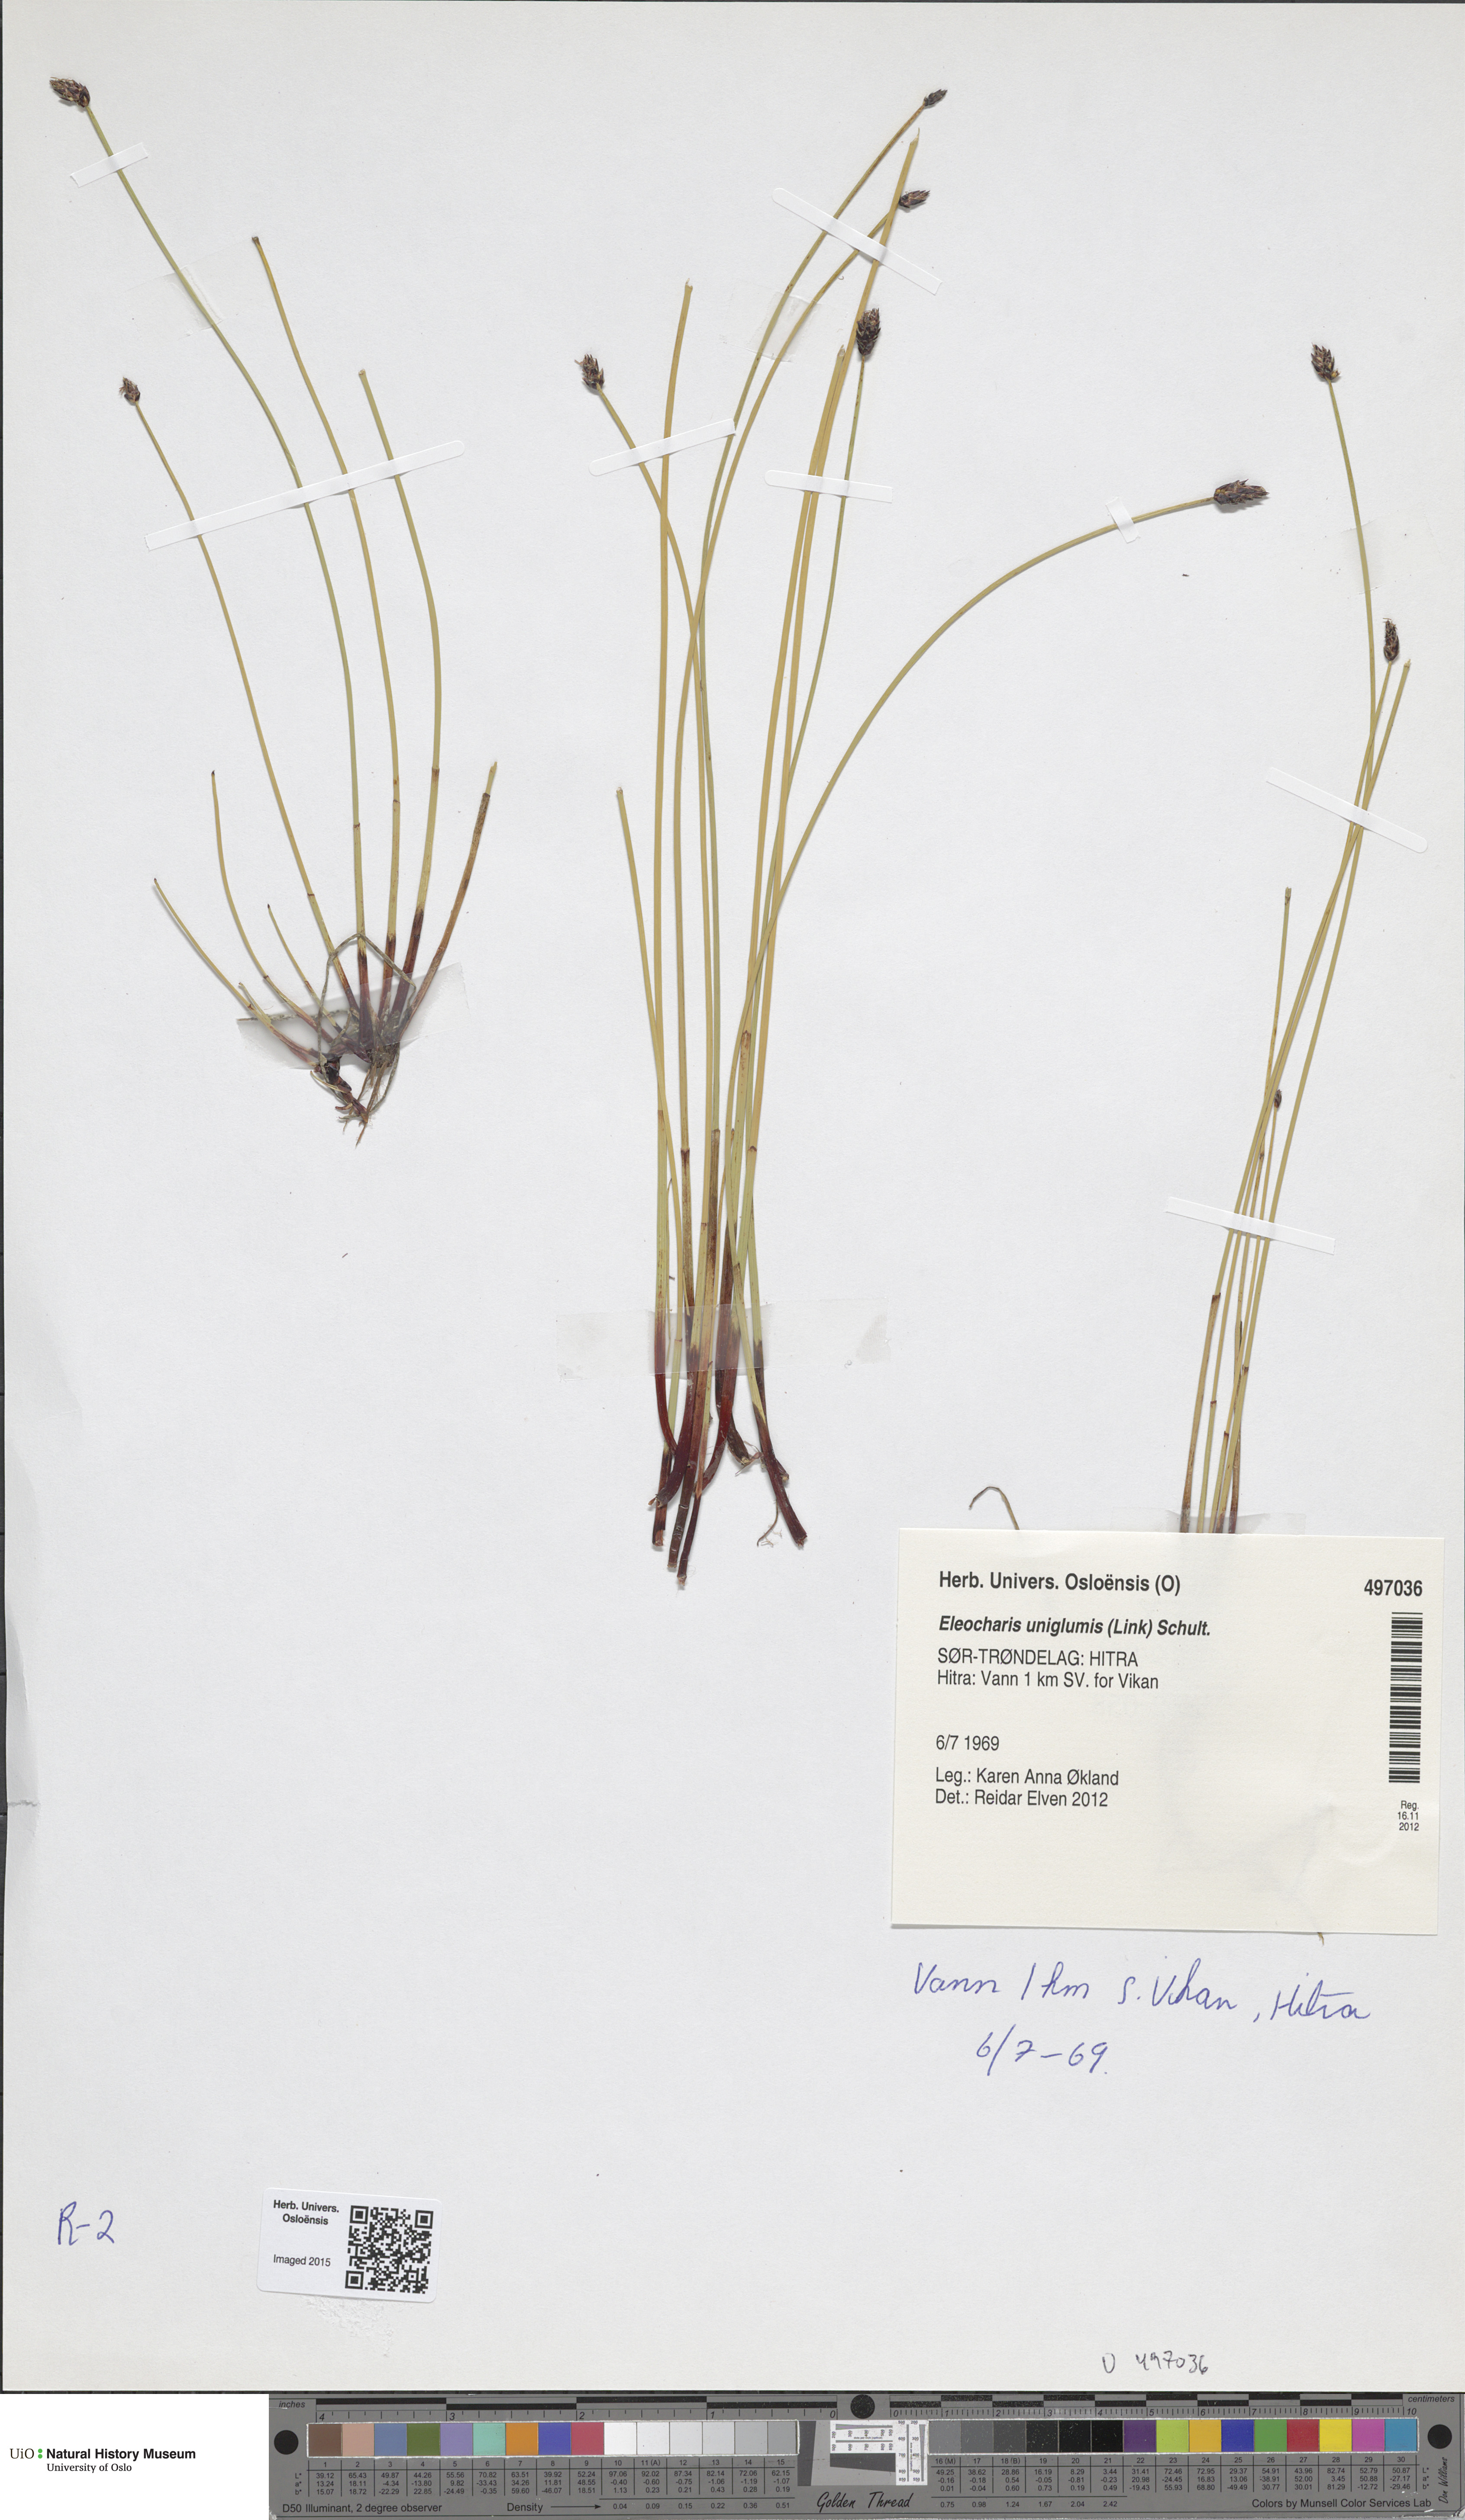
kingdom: Plantae
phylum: Tracheophyta
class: Liliopsida
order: Poales
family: Cyperaceae
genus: Eleocharis
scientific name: Eleocharis uniglumis
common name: Slender spike-rush
